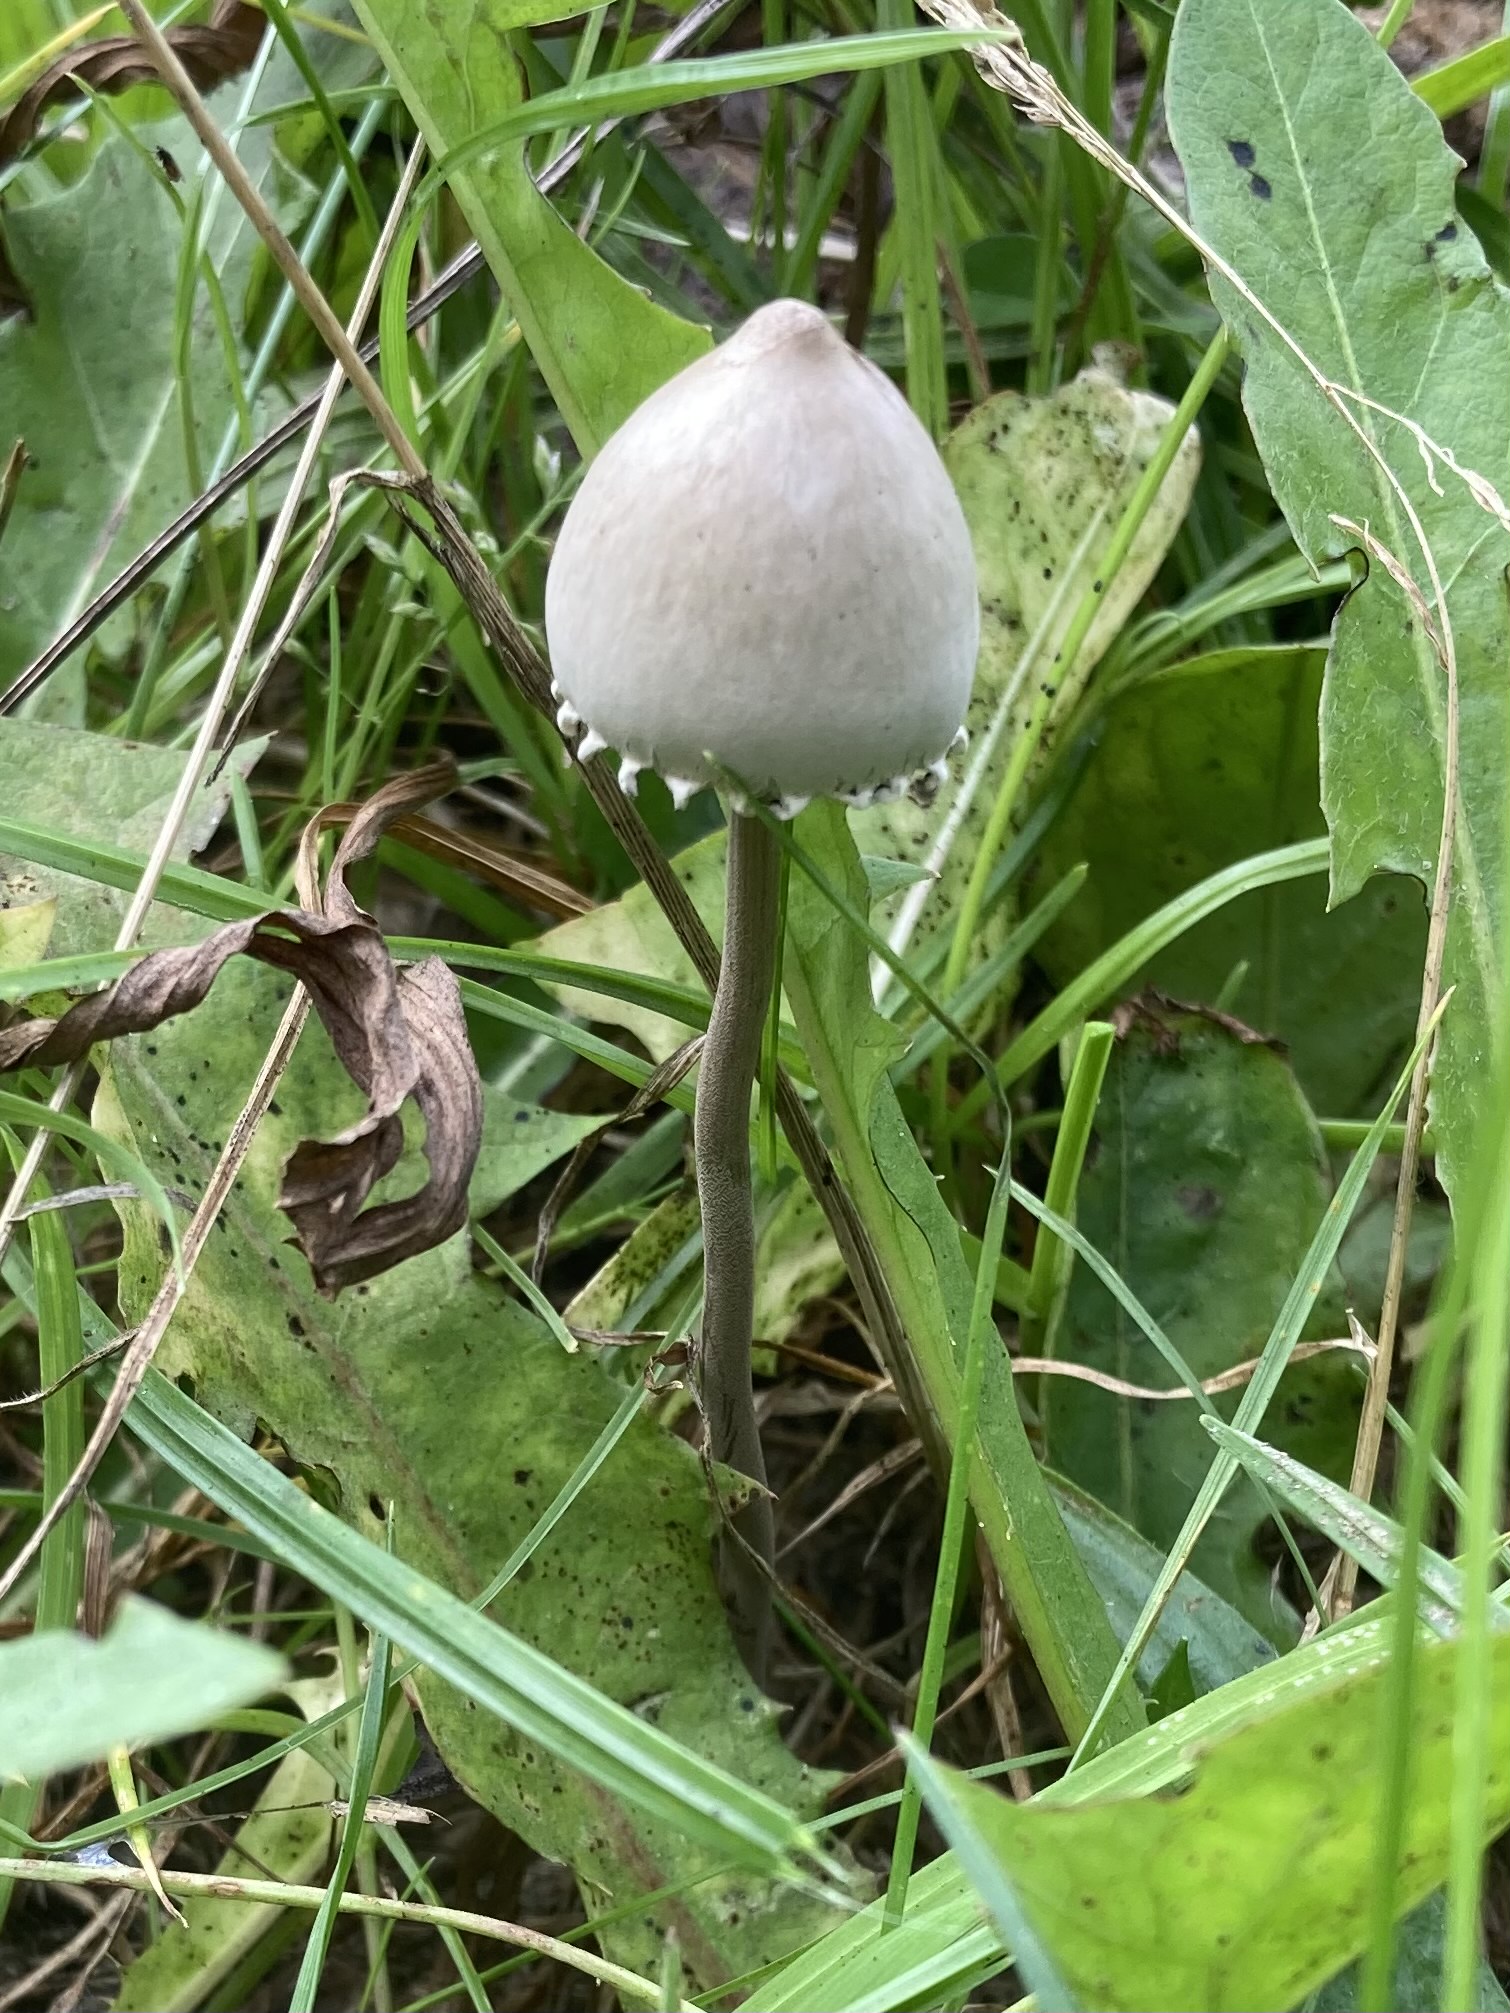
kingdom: Fungi
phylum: Basidiomycota
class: Agaricomycetes
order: Agaricales
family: Bolbitiaceae
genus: Panaeolus
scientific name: Panaeolus papilionaceus
